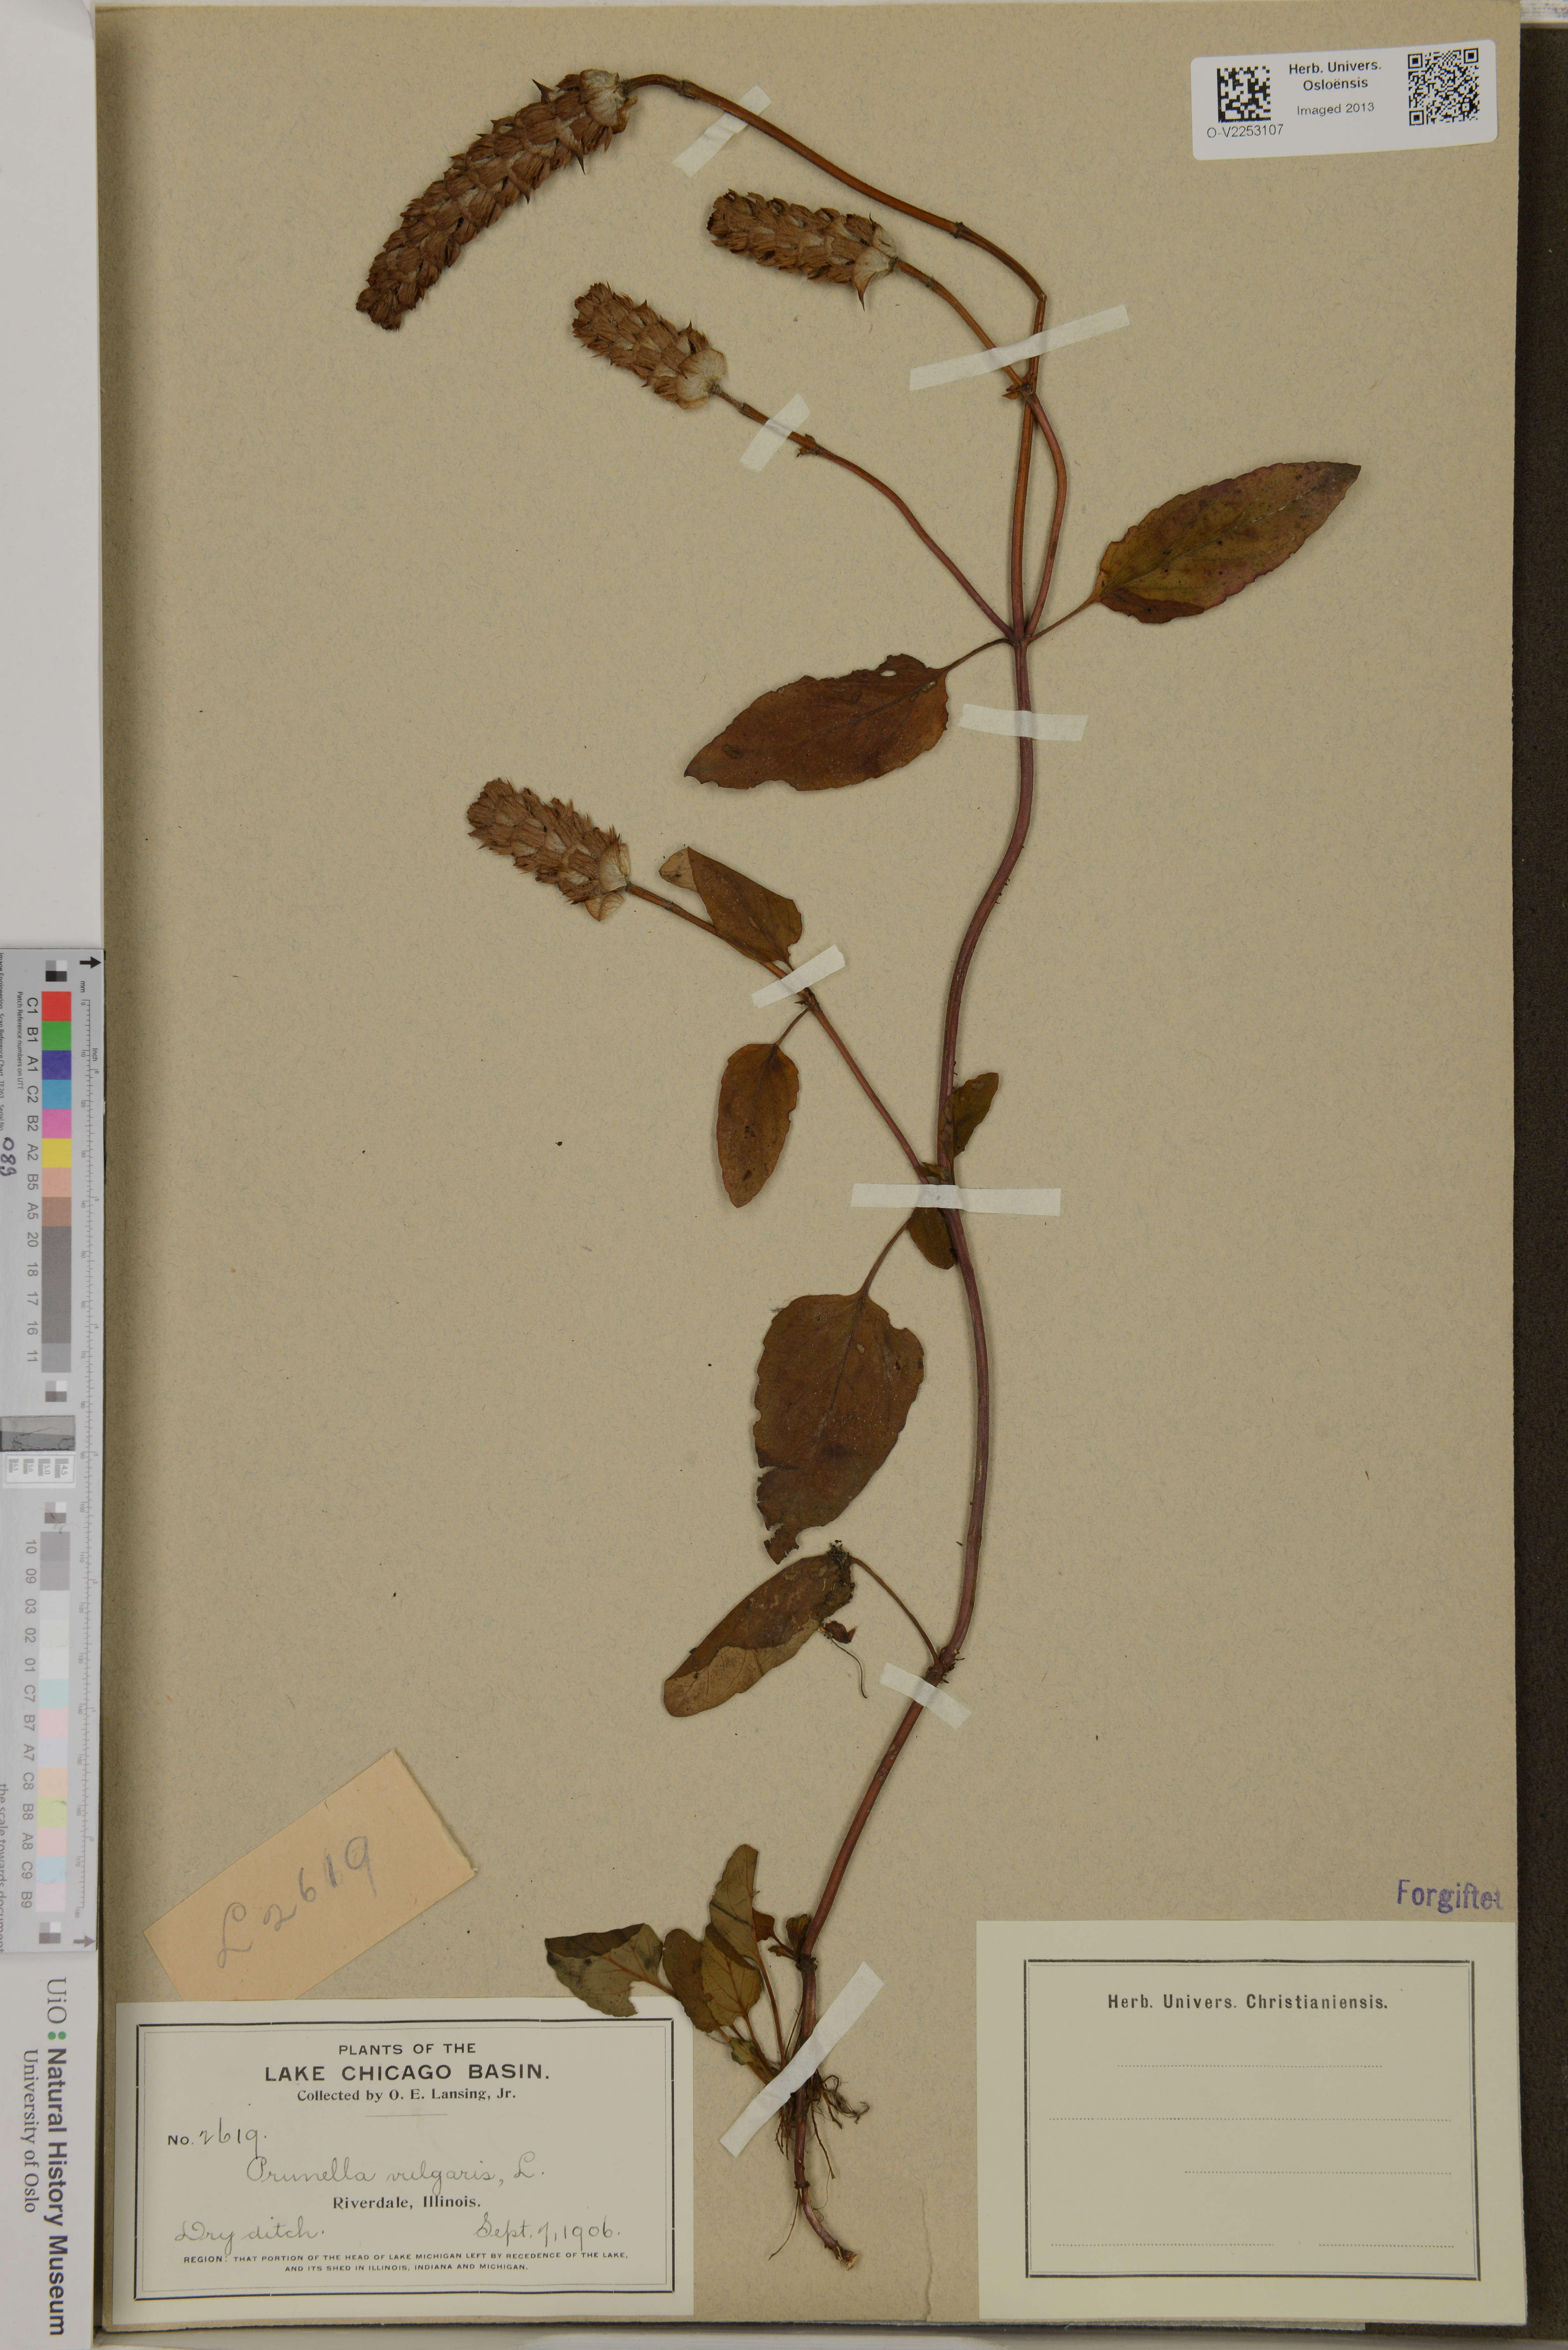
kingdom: Plantae
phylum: Tracheophyta
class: Magnoliopsida
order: Lamiales
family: Lamiaceae
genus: Prunella
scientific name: Prunella vulgaris
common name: Heal-all
